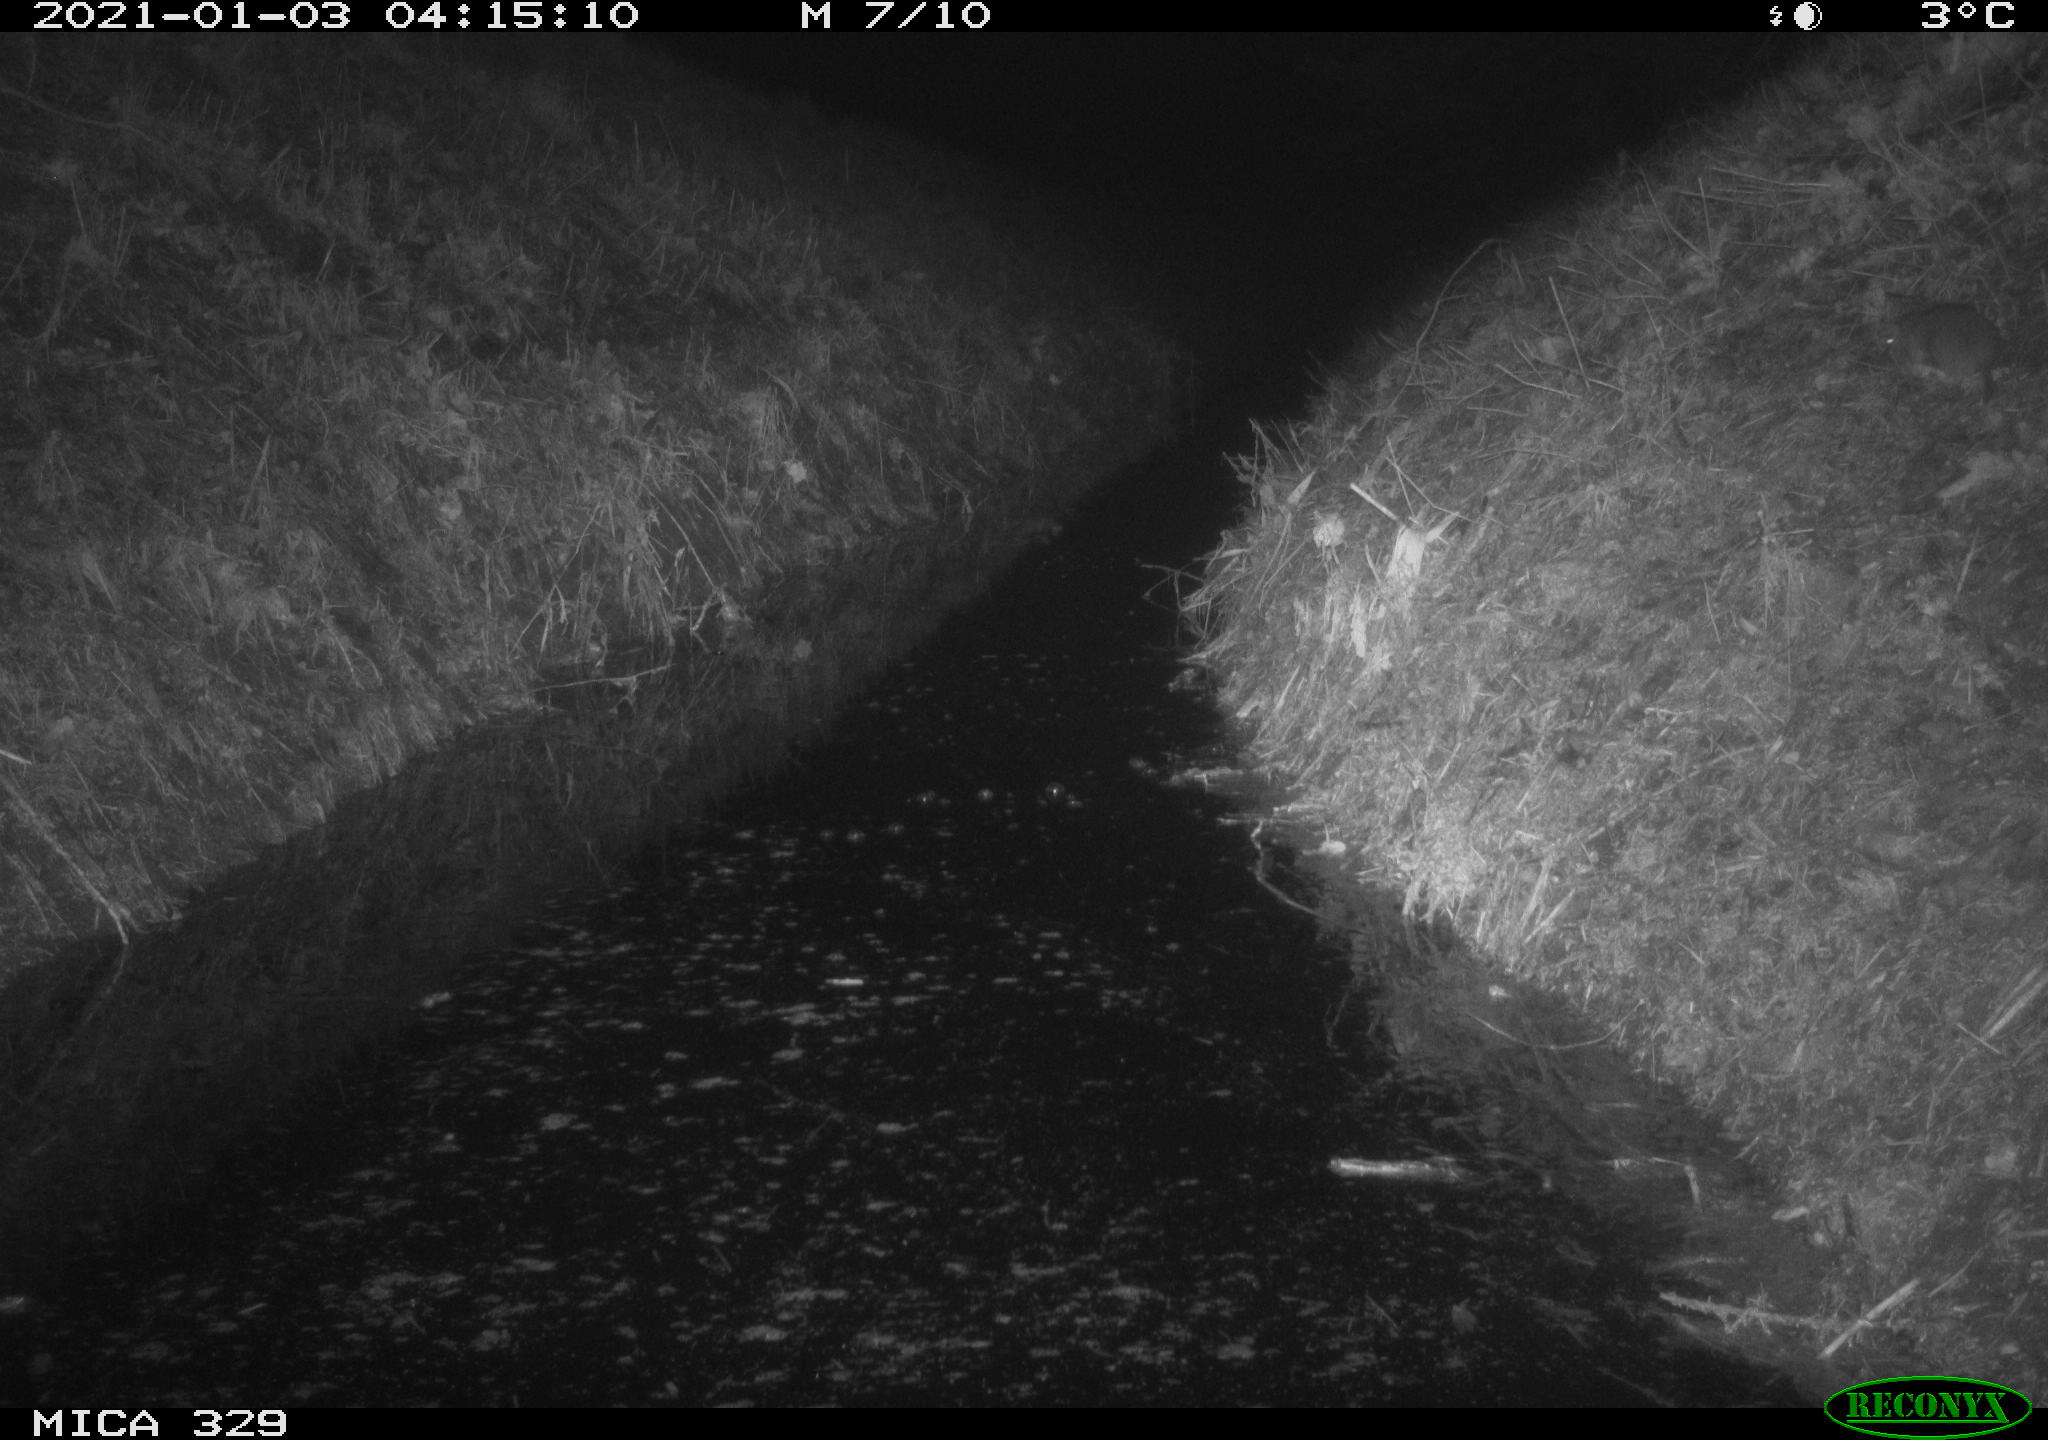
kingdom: Animalia
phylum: Chordata
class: Mammalia
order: Rodentia
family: Muridae
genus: Rattus
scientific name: Rattus norvegicus
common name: Brown rat
